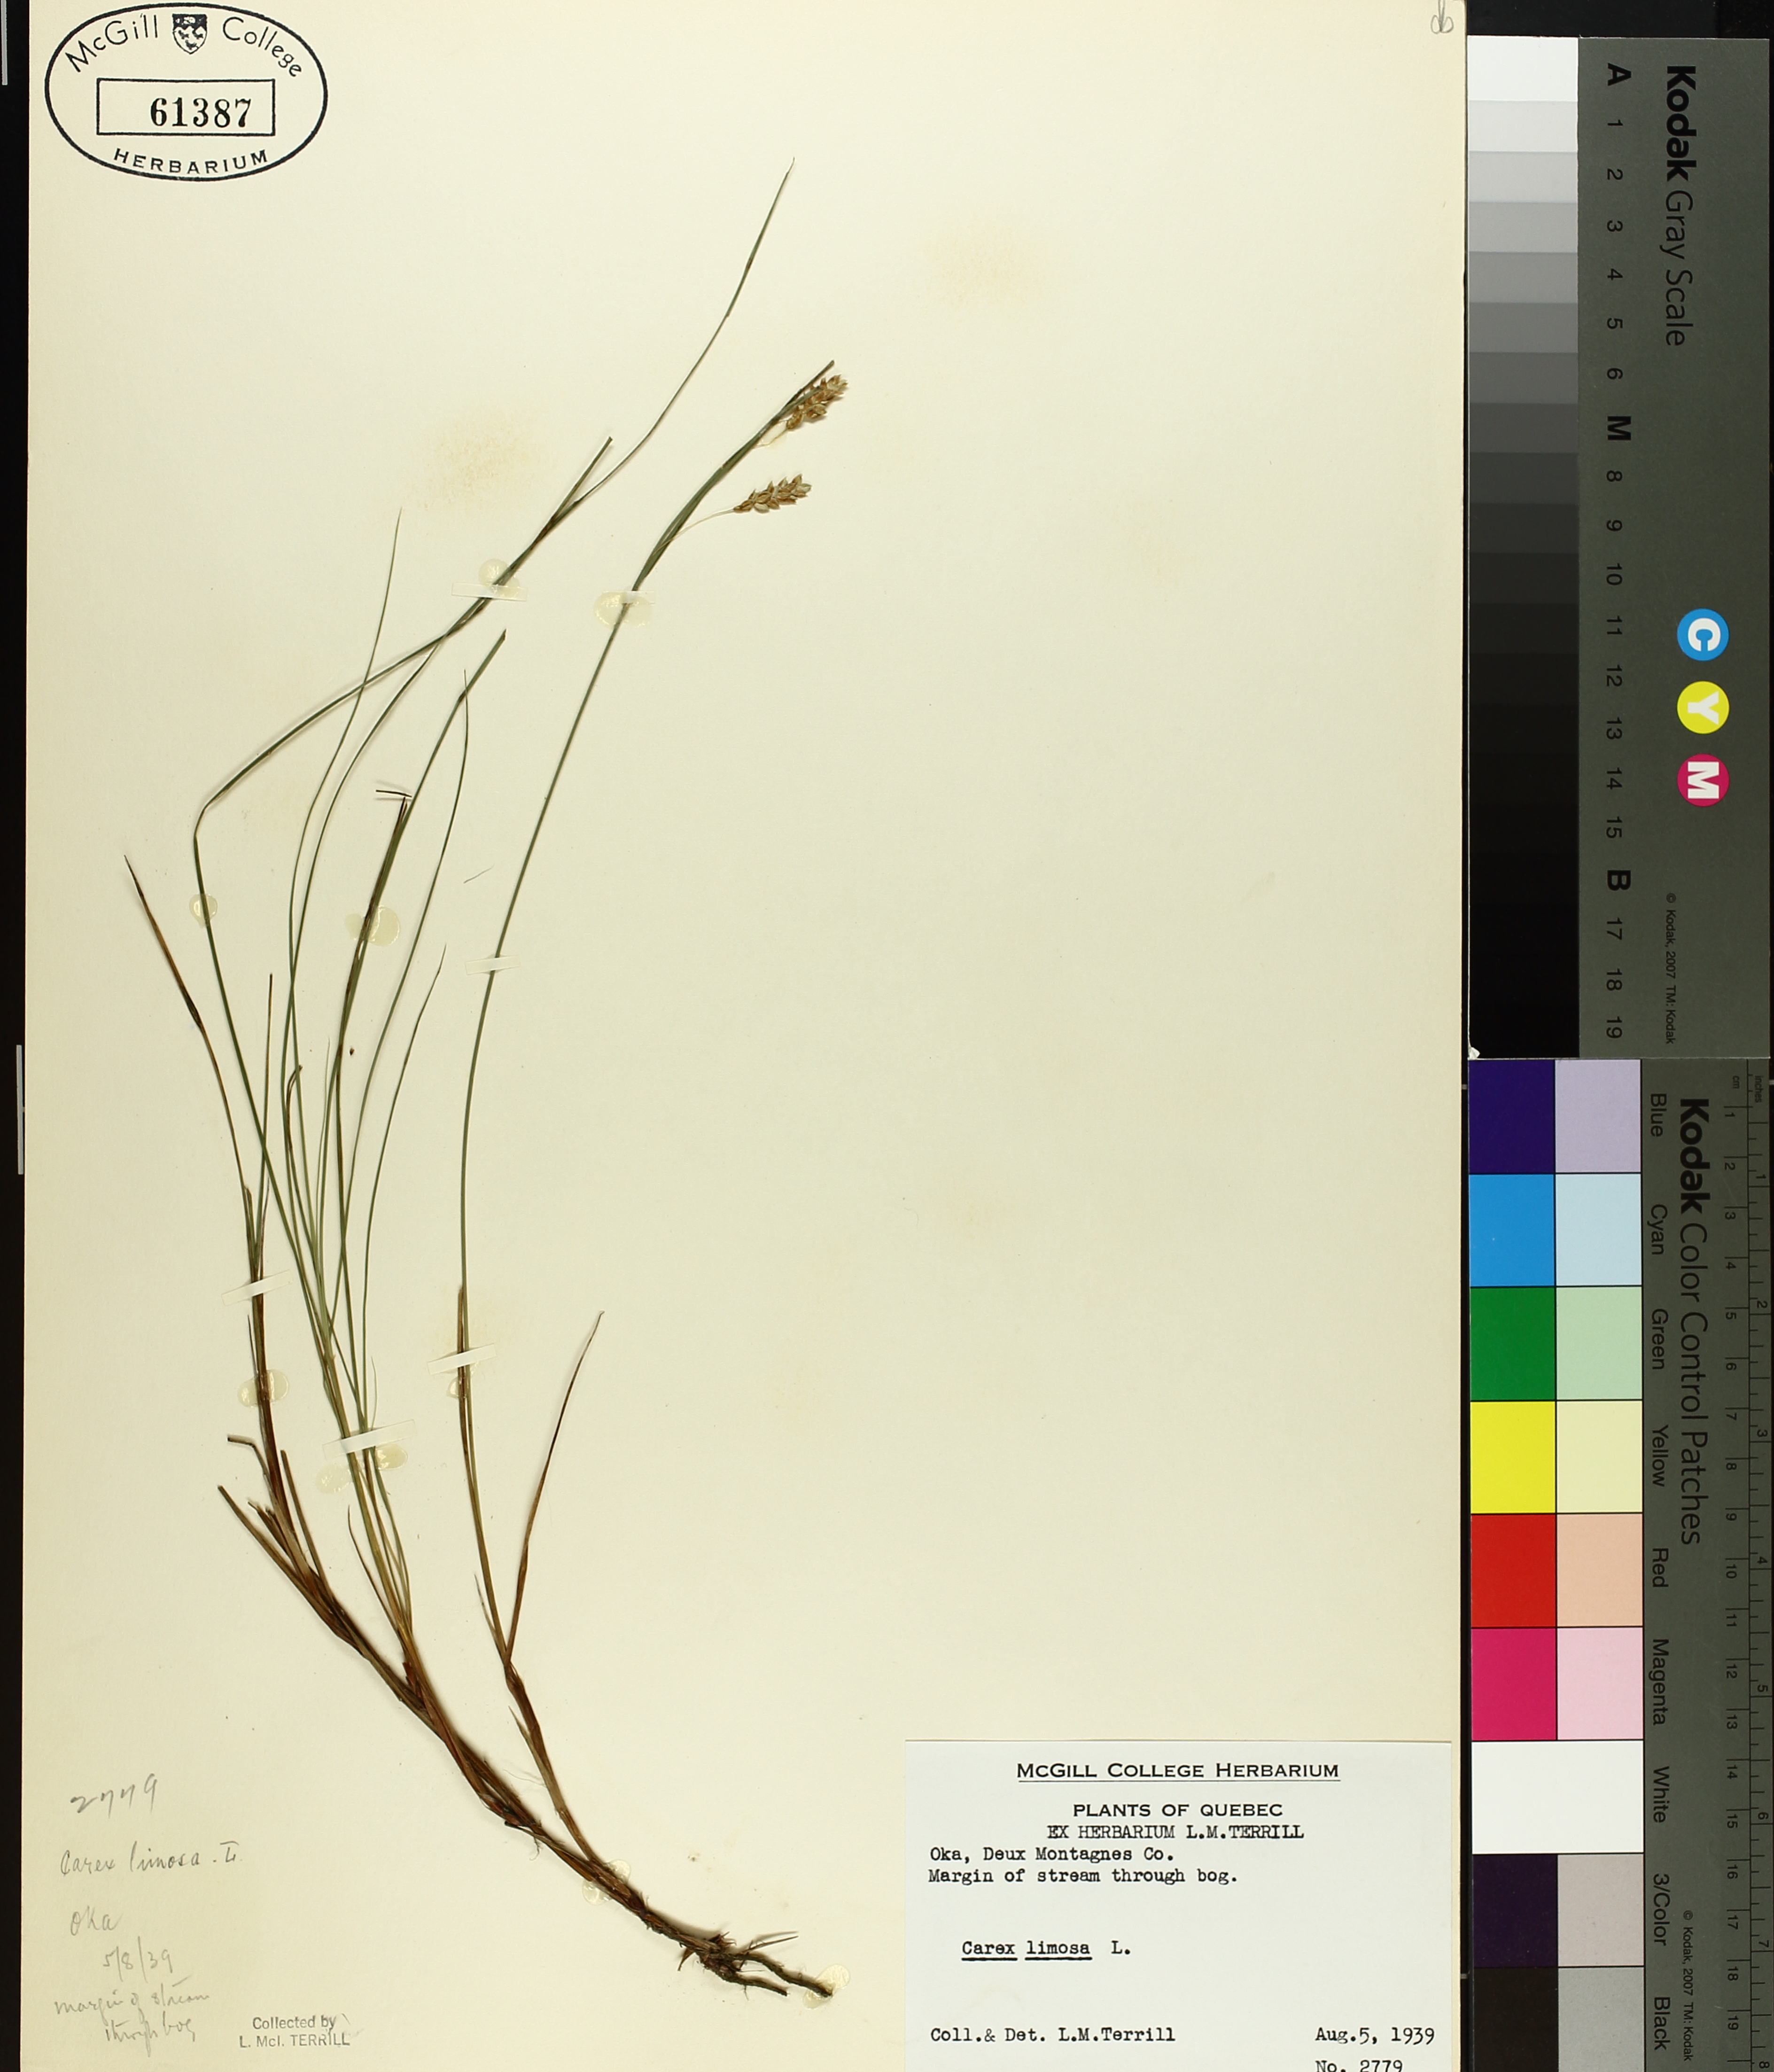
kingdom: Plantae
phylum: Tracheophyta
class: Liliopsida
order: Poales
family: Cyperaceae
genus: Carex
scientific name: Carex limosa
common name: Bog sedge
